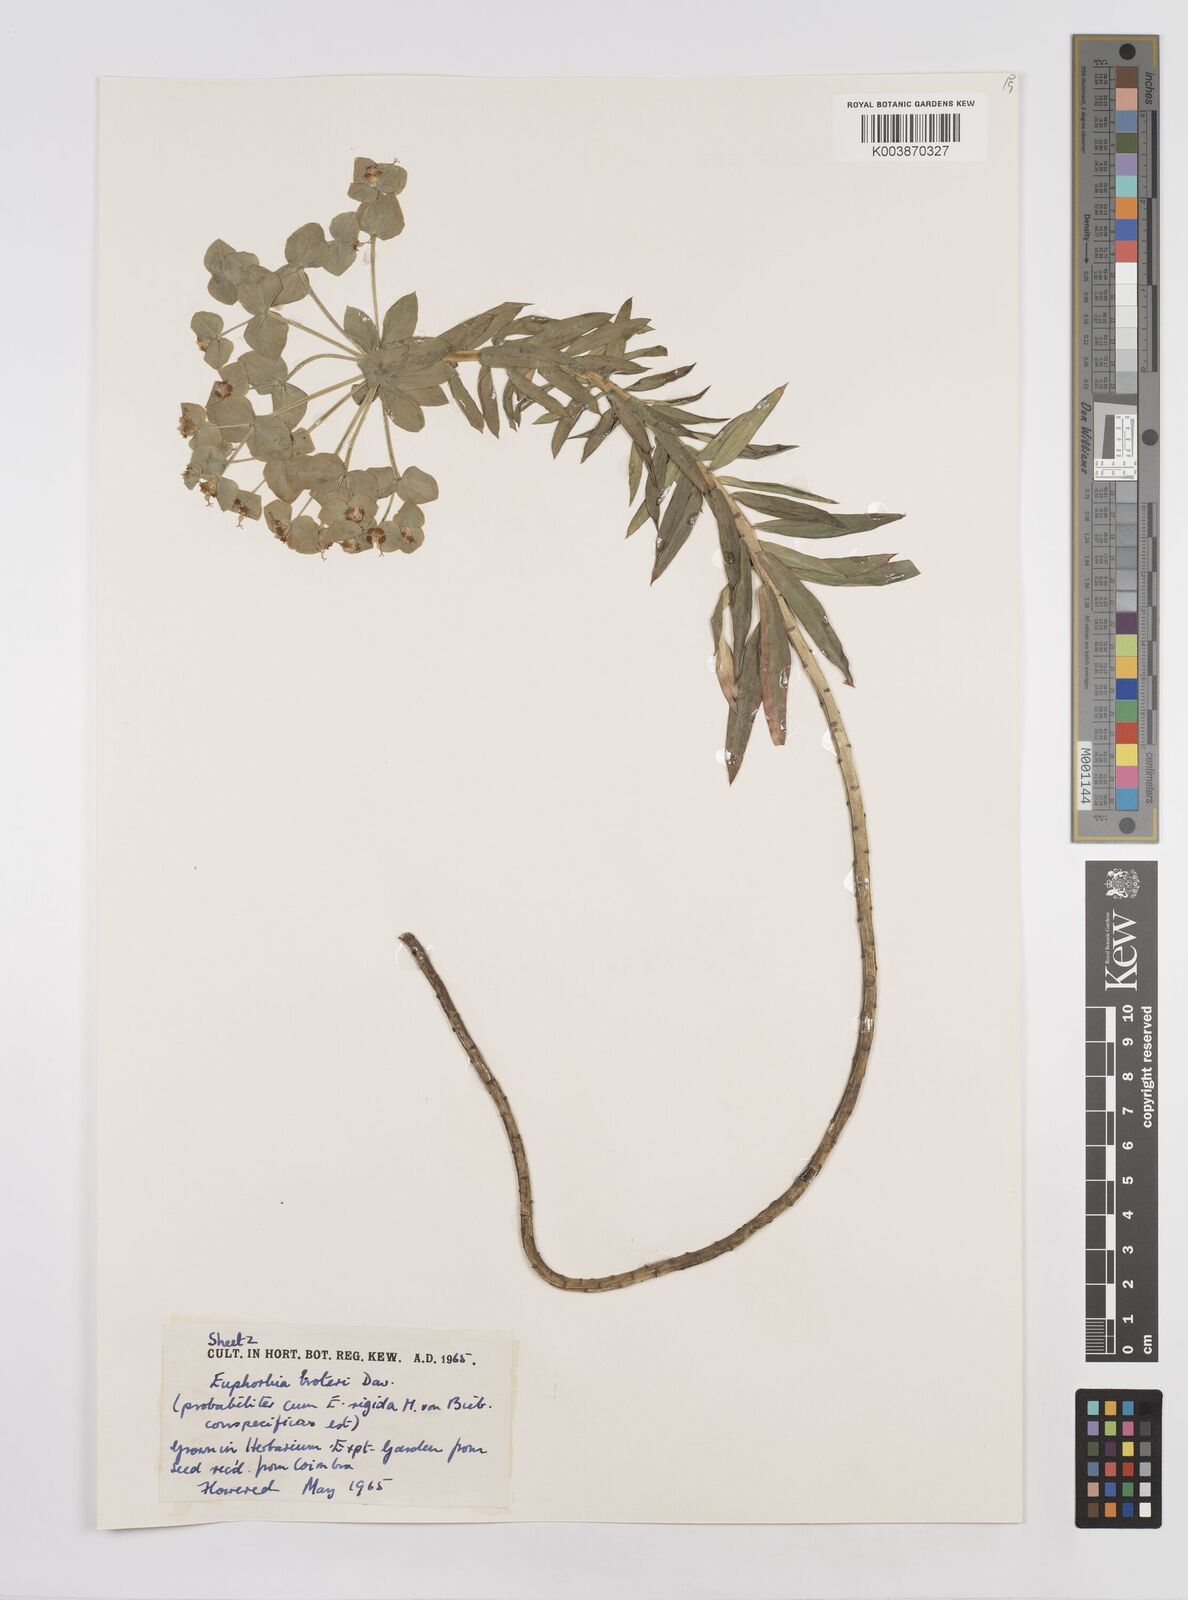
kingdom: Plantae
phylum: Tracheophyta
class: Magnoliopsida
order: Malpighiales
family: Euphorbiaceae
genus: Euphorbia
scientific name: Euphorbia oxyphylla
